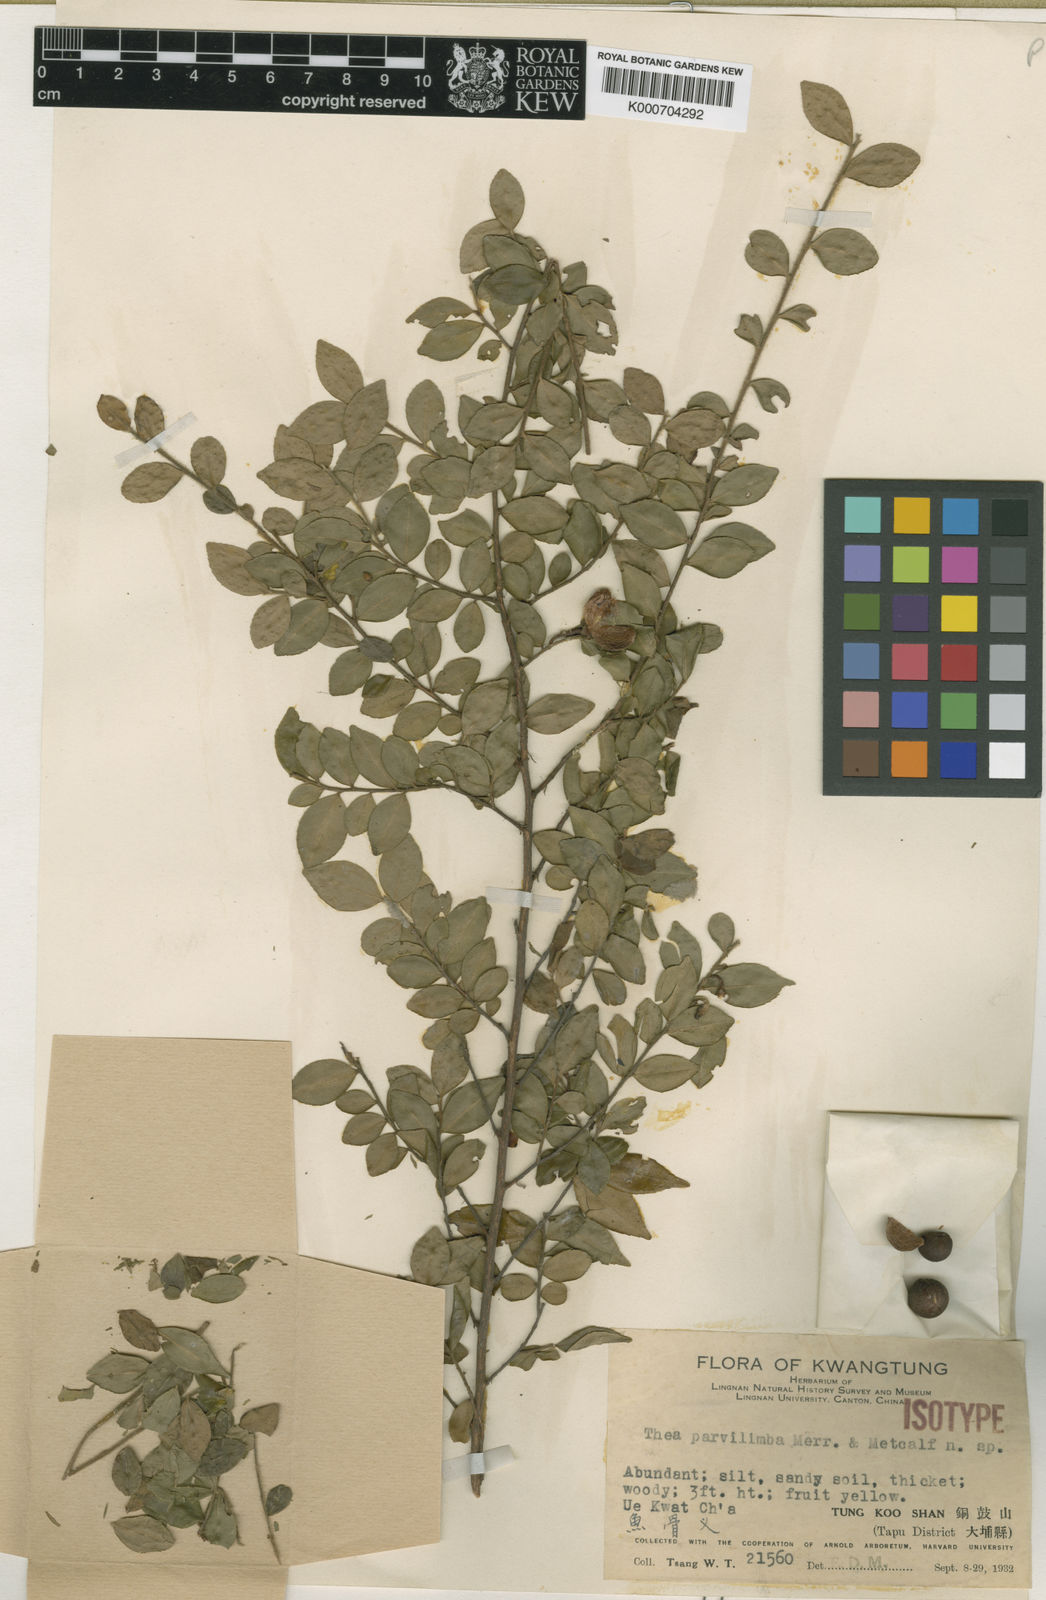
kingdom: Plantae
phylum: Tracheophyta
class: Magnoliopsida
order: Ericales
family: Theaceae
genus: Camellia
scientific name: Camellia euryoides
